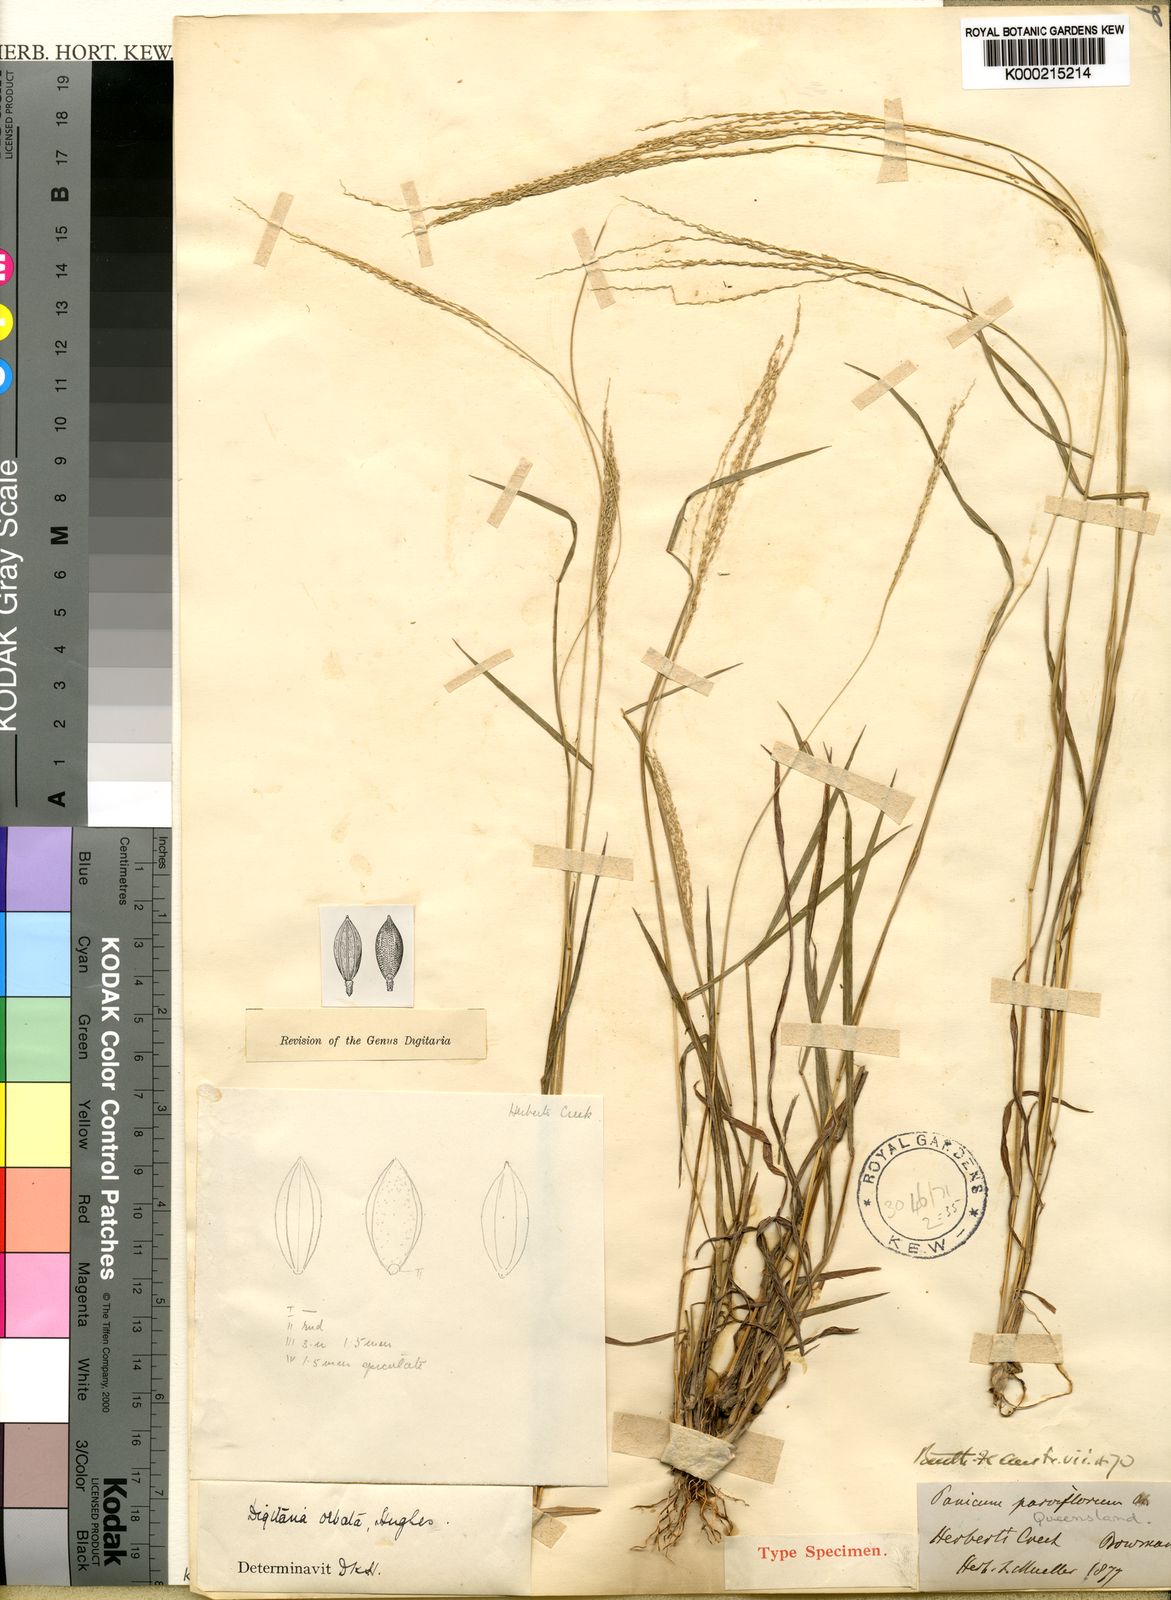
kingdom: Plantae
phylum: Tracheophyta
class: Liliopsida
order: Poales
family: Poaceae
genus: Digitaria
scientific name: Digitaria orbata
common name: Crabgrass
